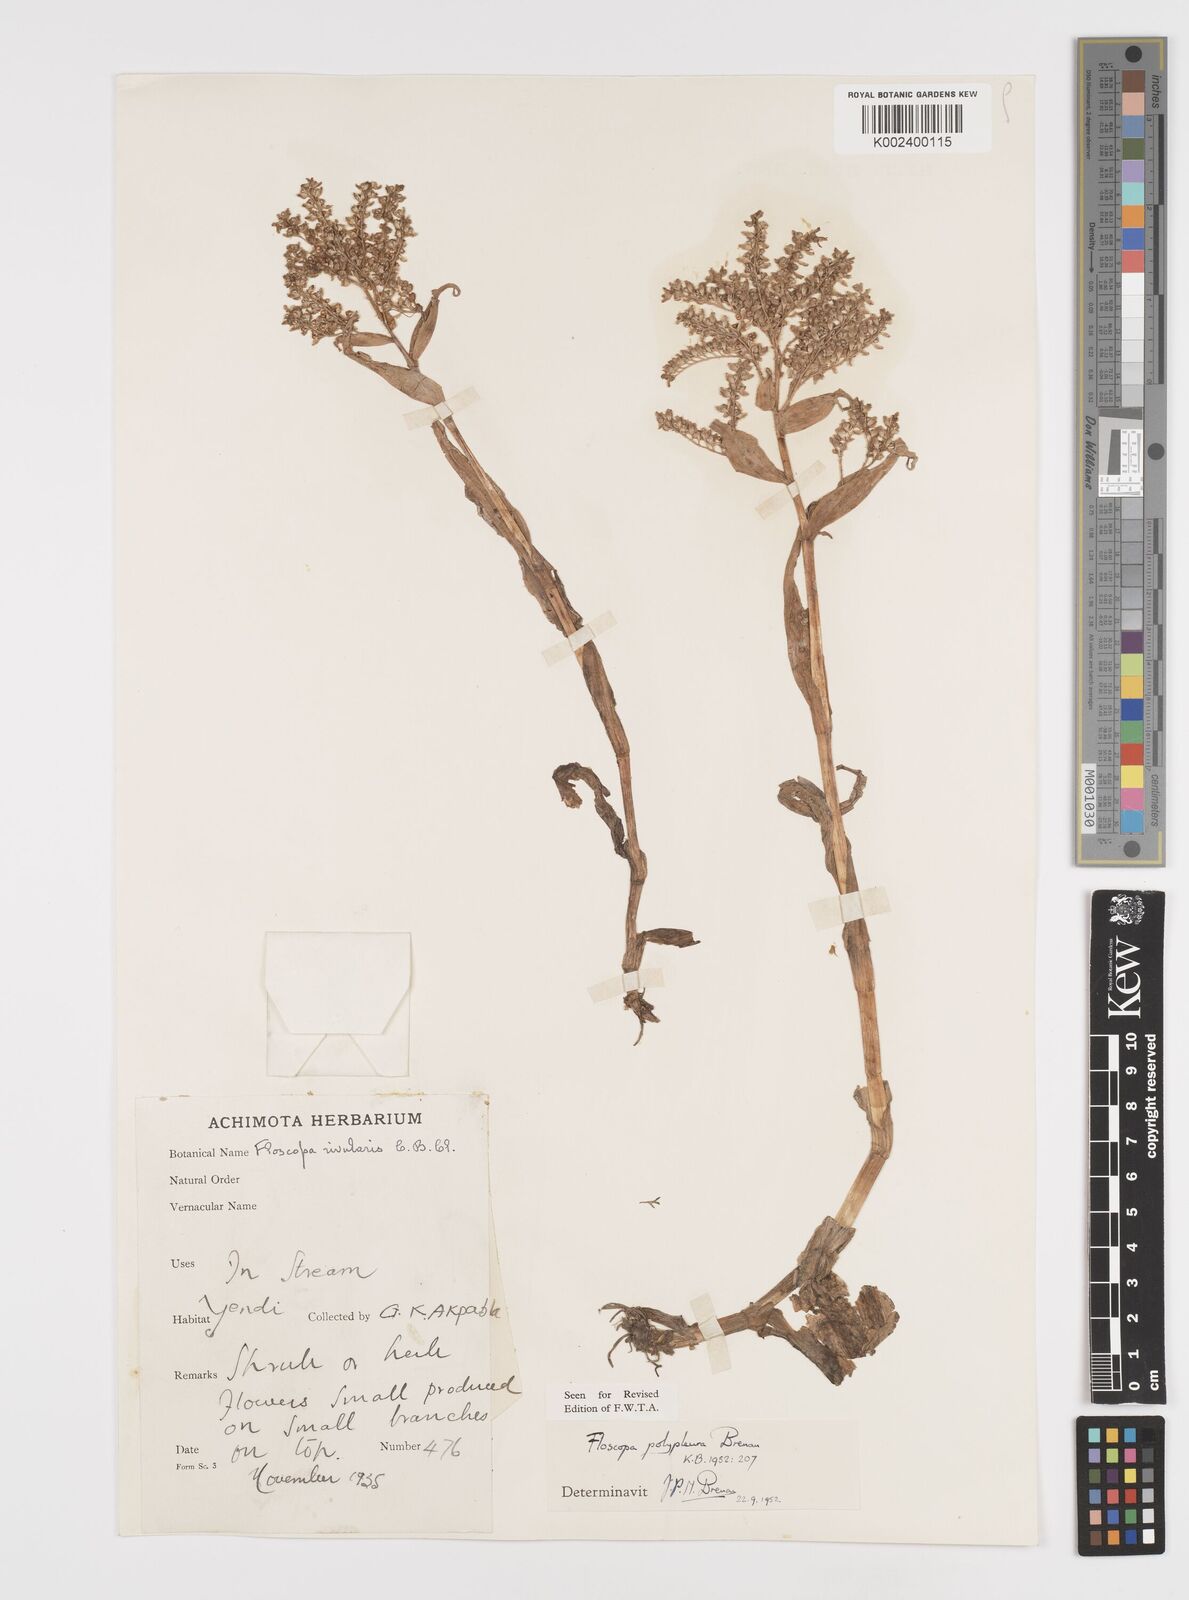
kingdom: Plantae
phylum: Tracheophyta
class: Liliopsida
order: Commelinales
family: Commelinaceae
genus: Floscopa
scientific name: Floscopa polypleura
